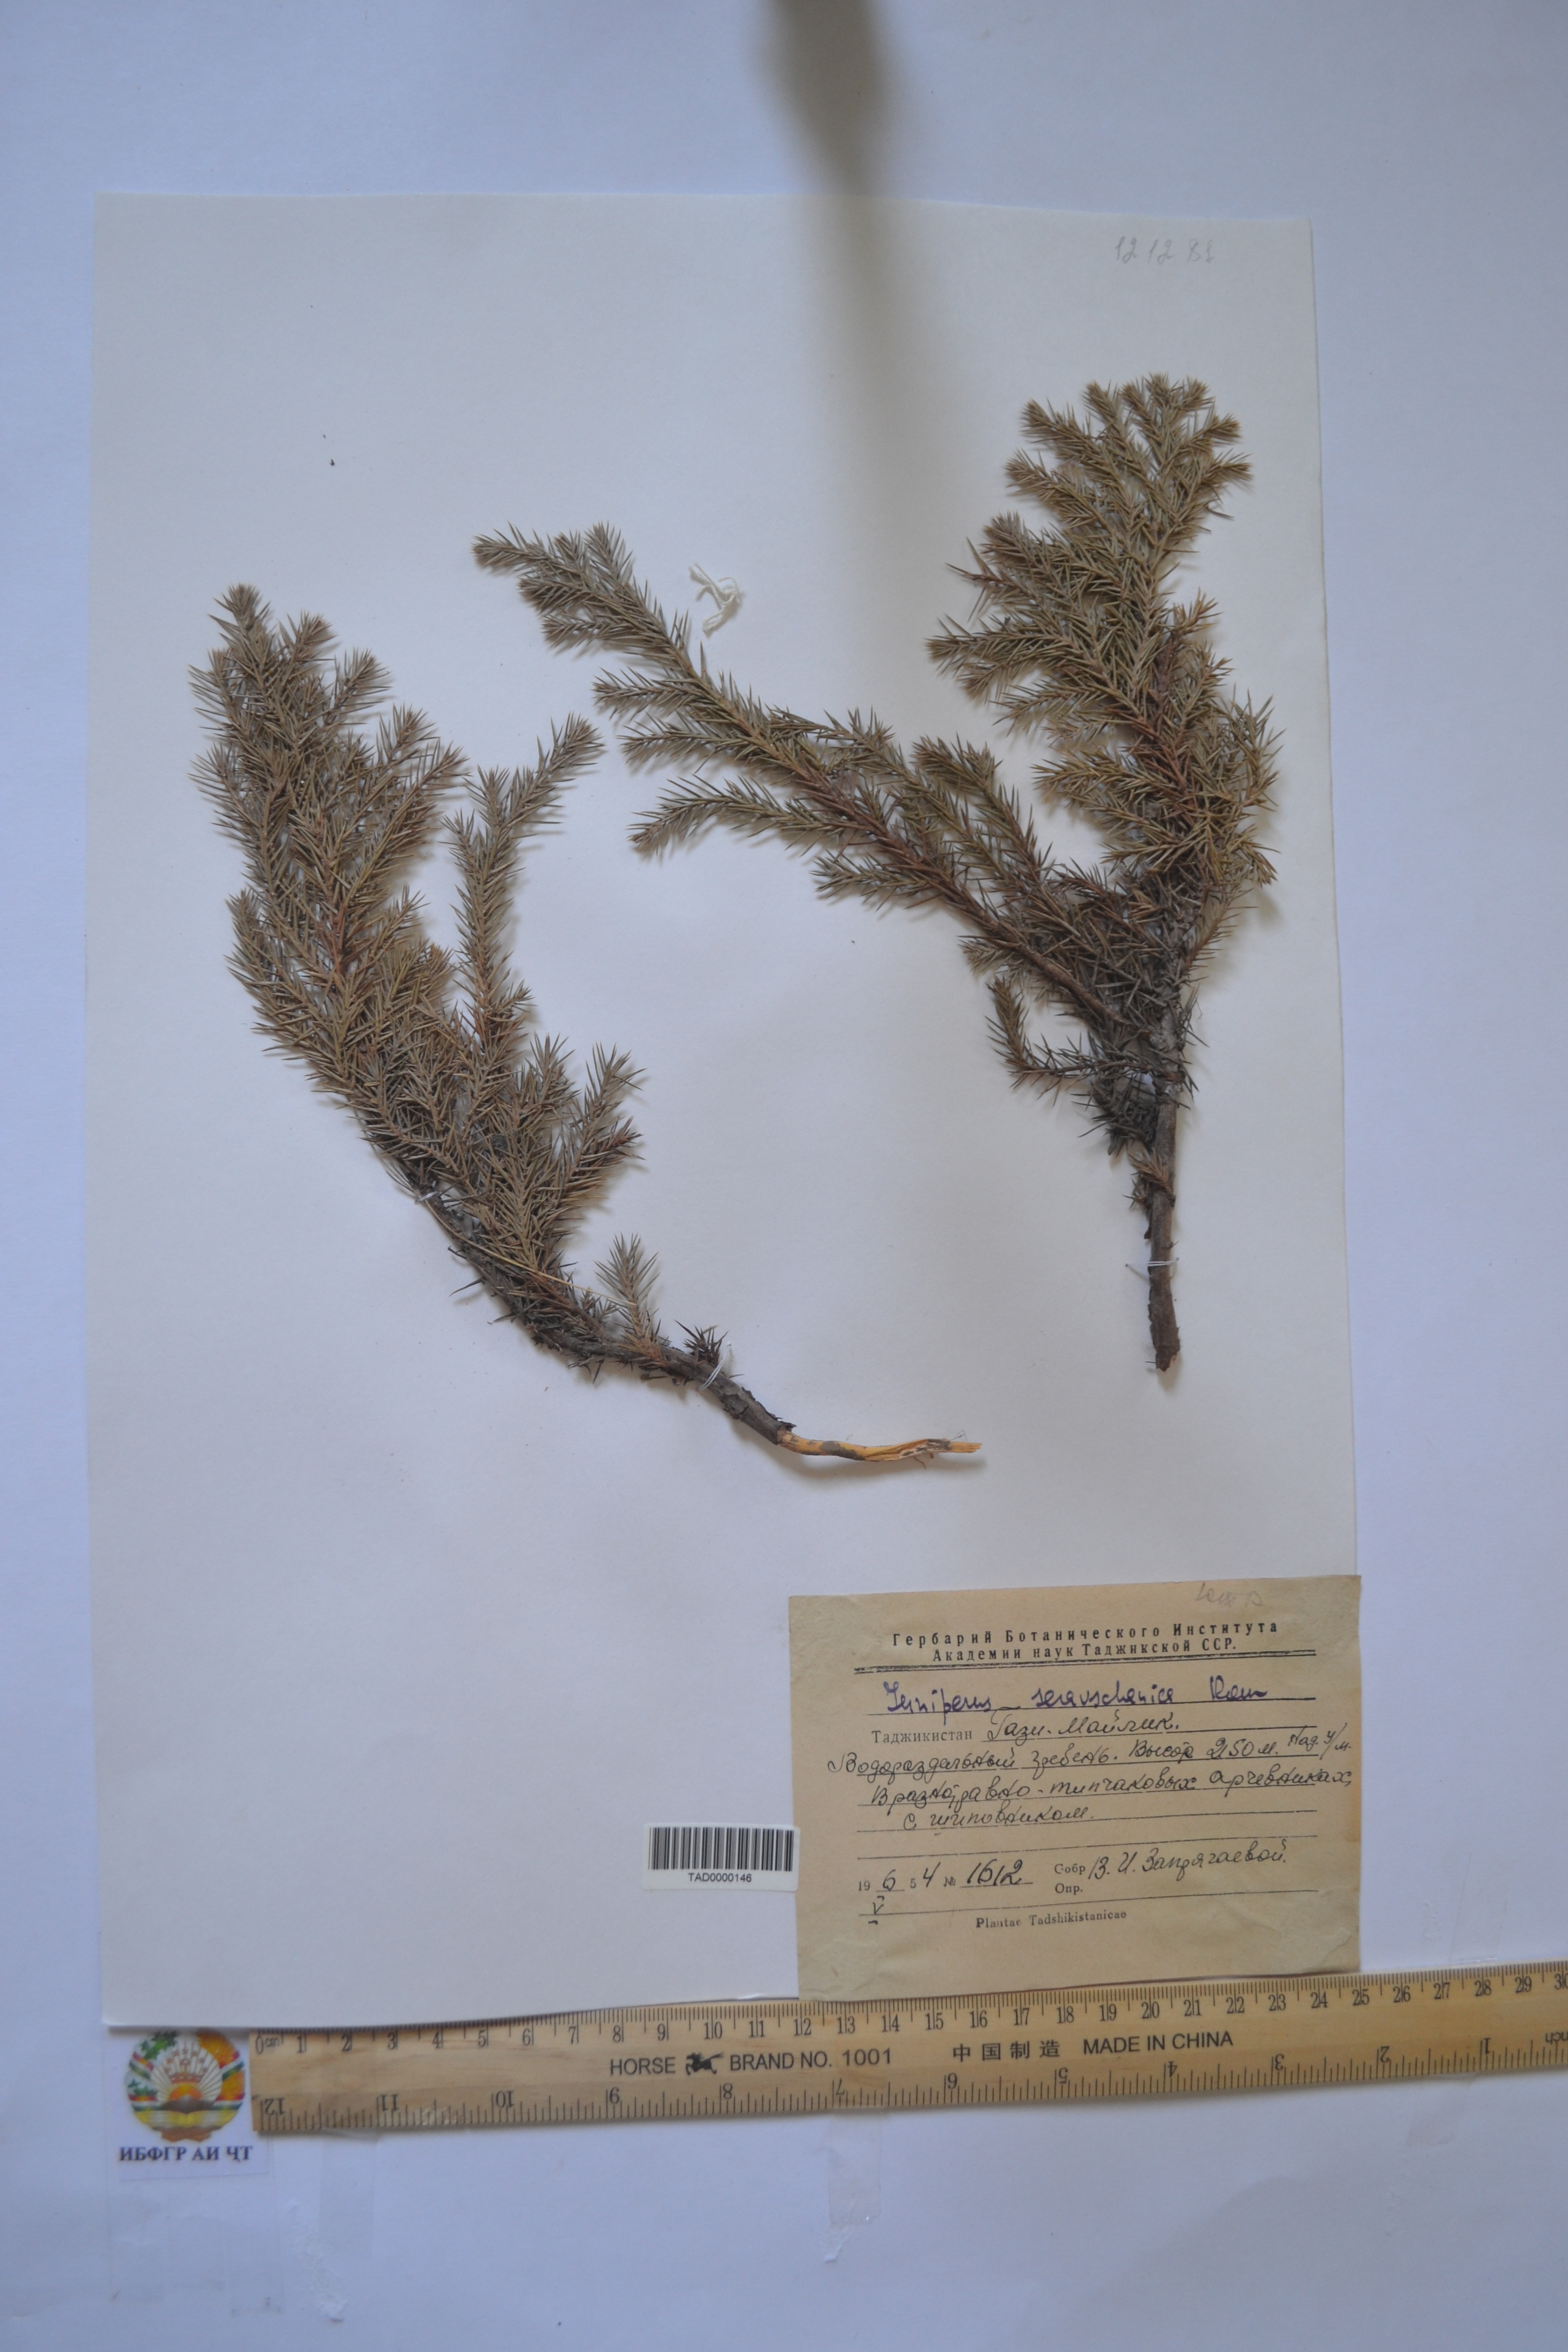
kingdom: Plantae
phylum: Tracheophyta
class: Pinopsida
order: Pinales
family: Cupressaceae
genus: Juniperus
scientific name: Juniperus excelsa
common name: Crimean juniper
